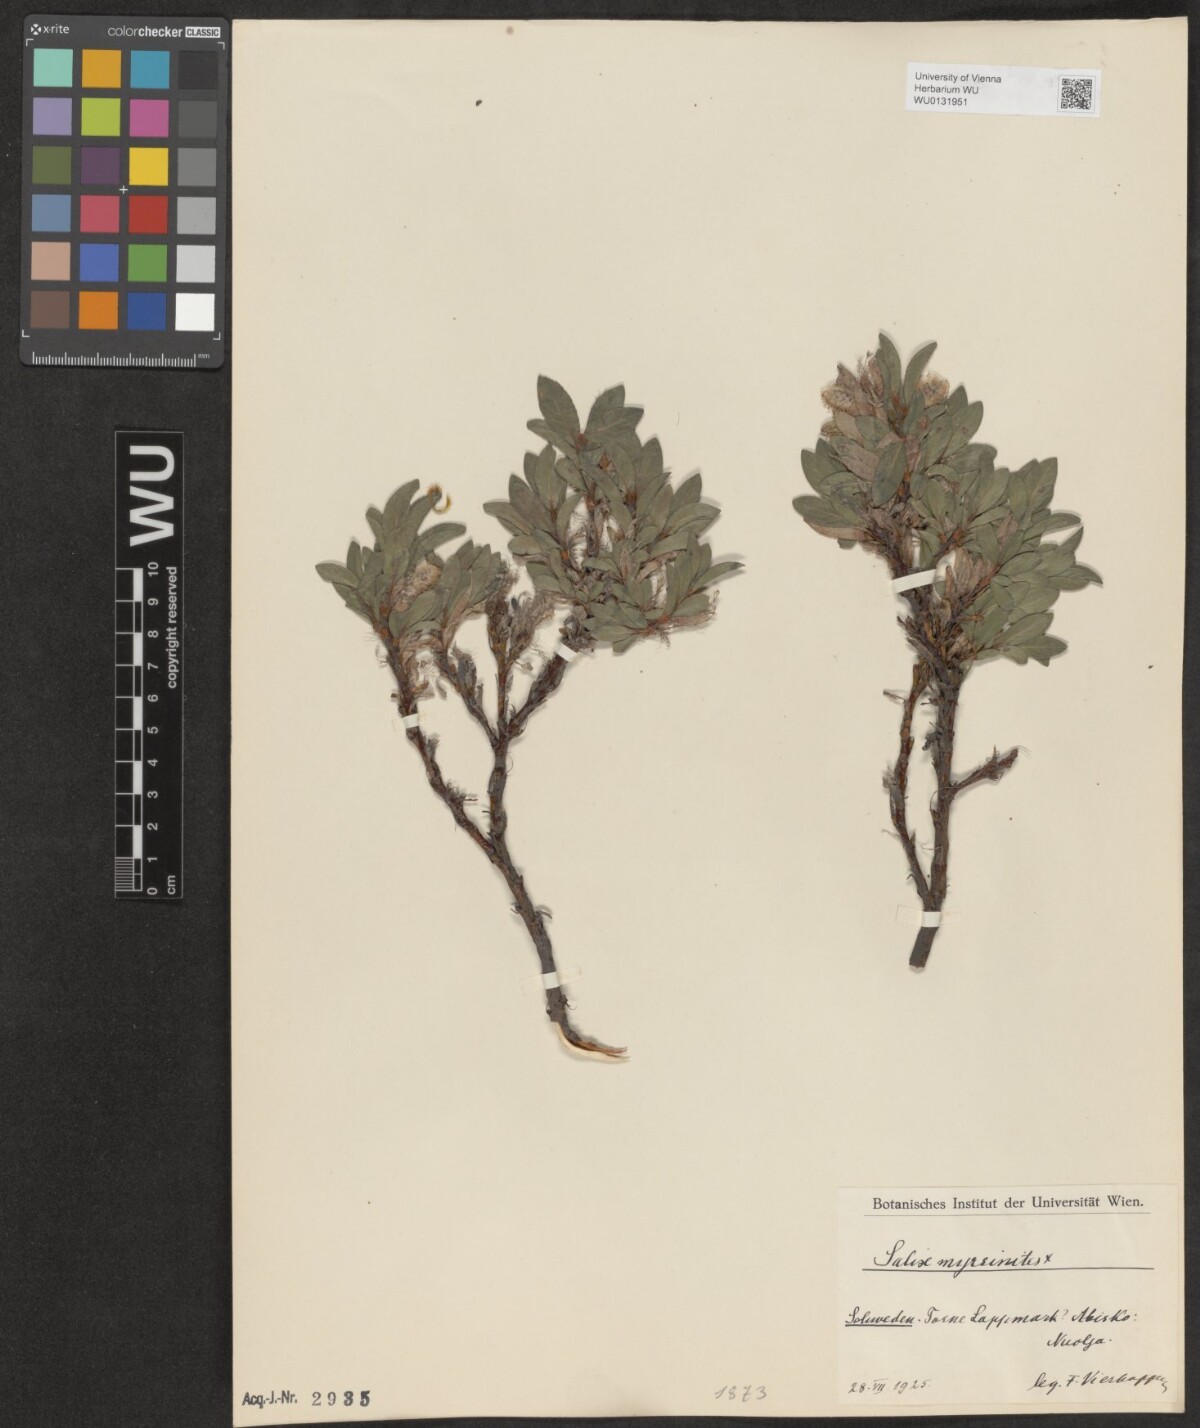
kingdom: Plantae
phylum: Tracheophyta
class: Magnoliopsida
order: Malpighiales
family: Salicaceae
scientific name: Salicaceae
